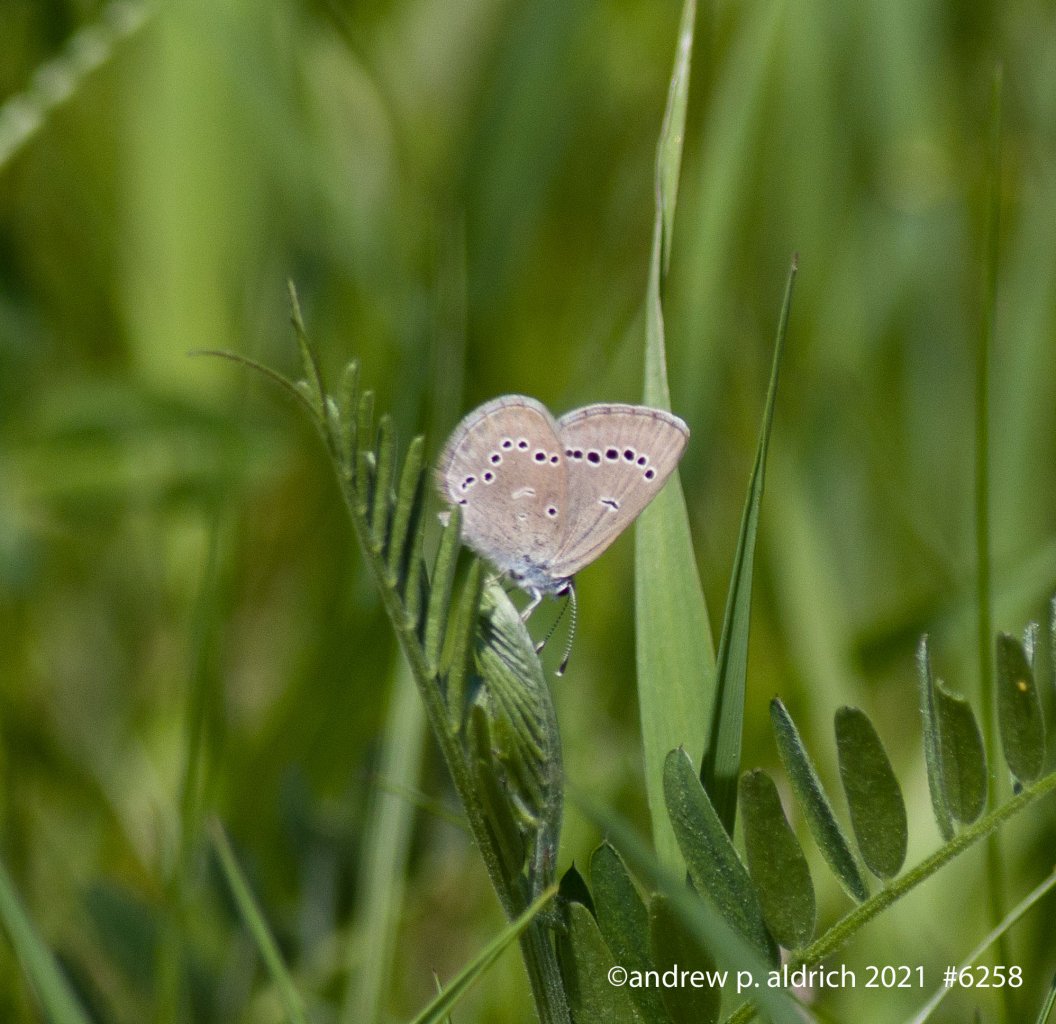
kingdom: Animalia
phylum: Arthropoda
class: Insecta
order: Lepidoptera
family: Lycaenidae
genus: Glaucopsyche
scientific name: Glaucopsyche lygdamus
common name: Silvery Blue
